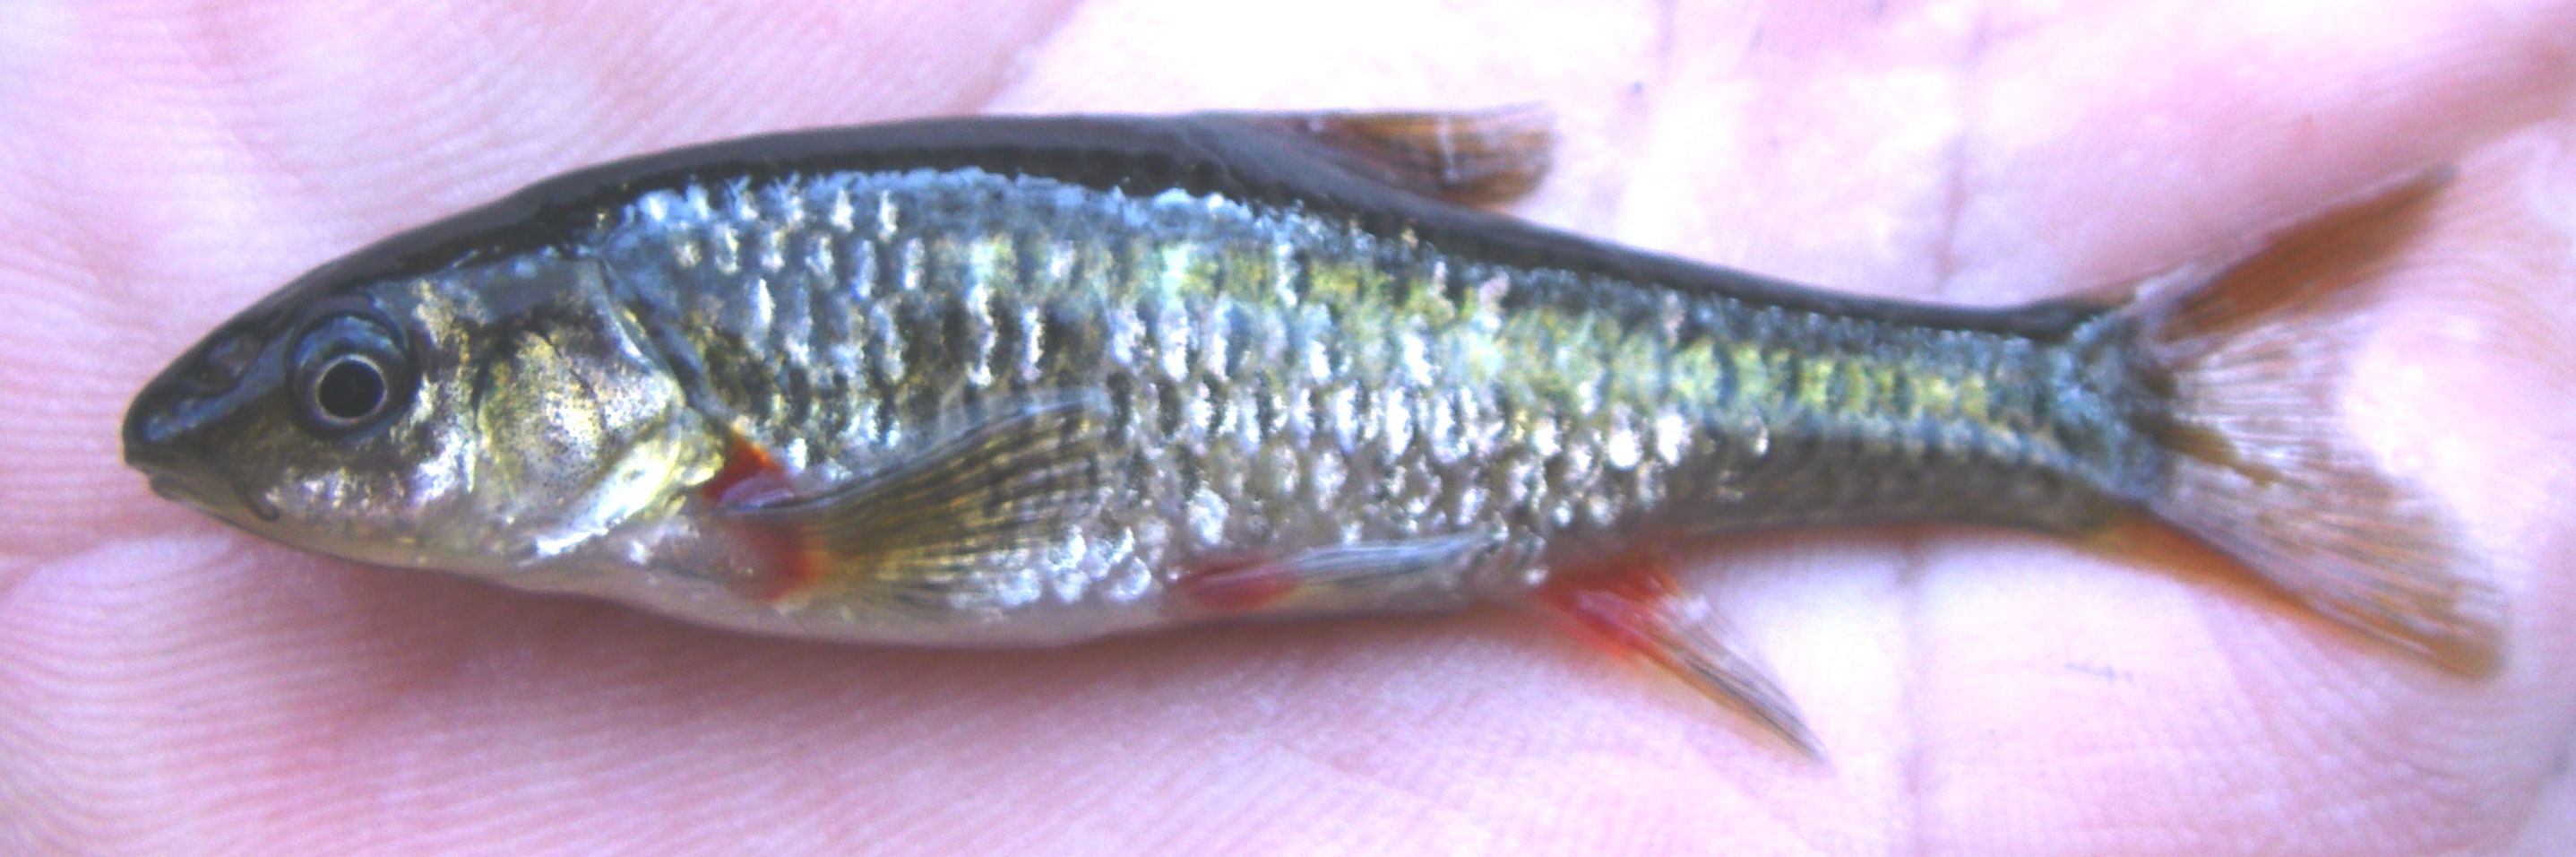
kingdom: Animalia
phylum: Chordata
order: Cypriniformes
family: Cyprinidae
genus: Pseudobarbus
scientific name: Pseudobarbus afer
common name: Eastern cape redfin
